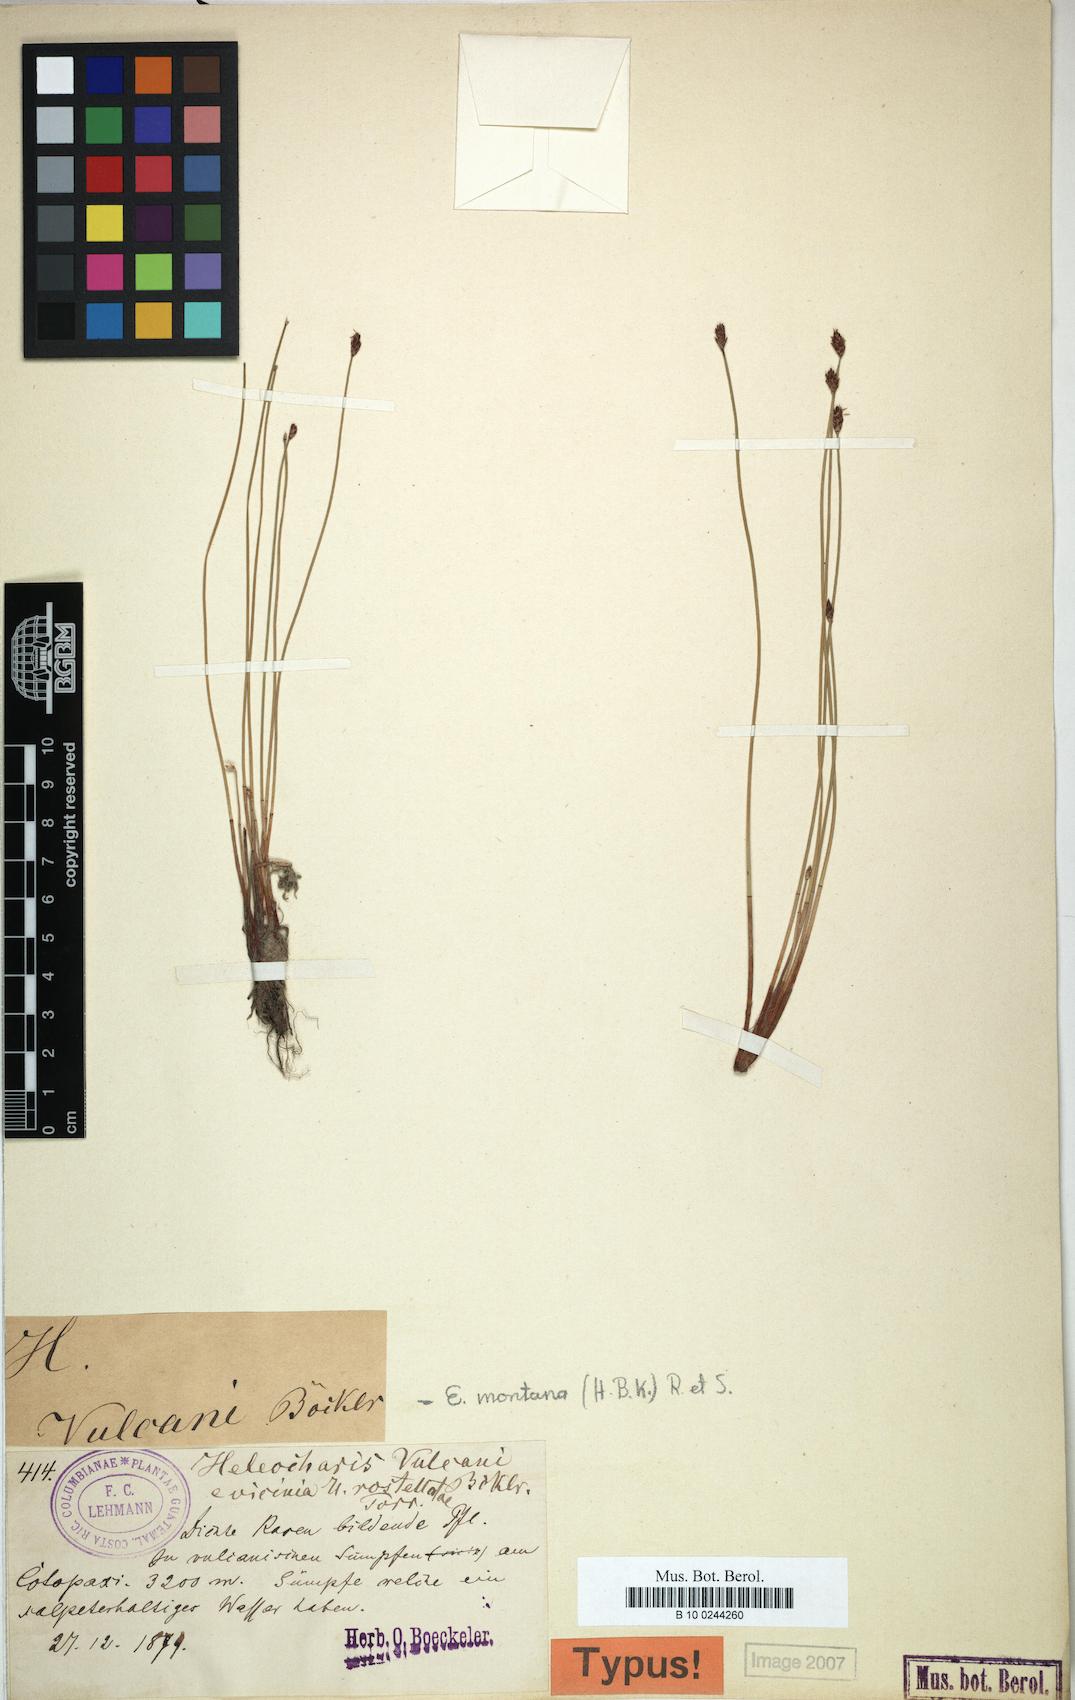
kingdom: Plantae
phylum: Tracheophyta
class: Liliopsida
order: Poales
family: Cyperaceae
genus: Eleocharis
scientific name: Eleocharis montana
